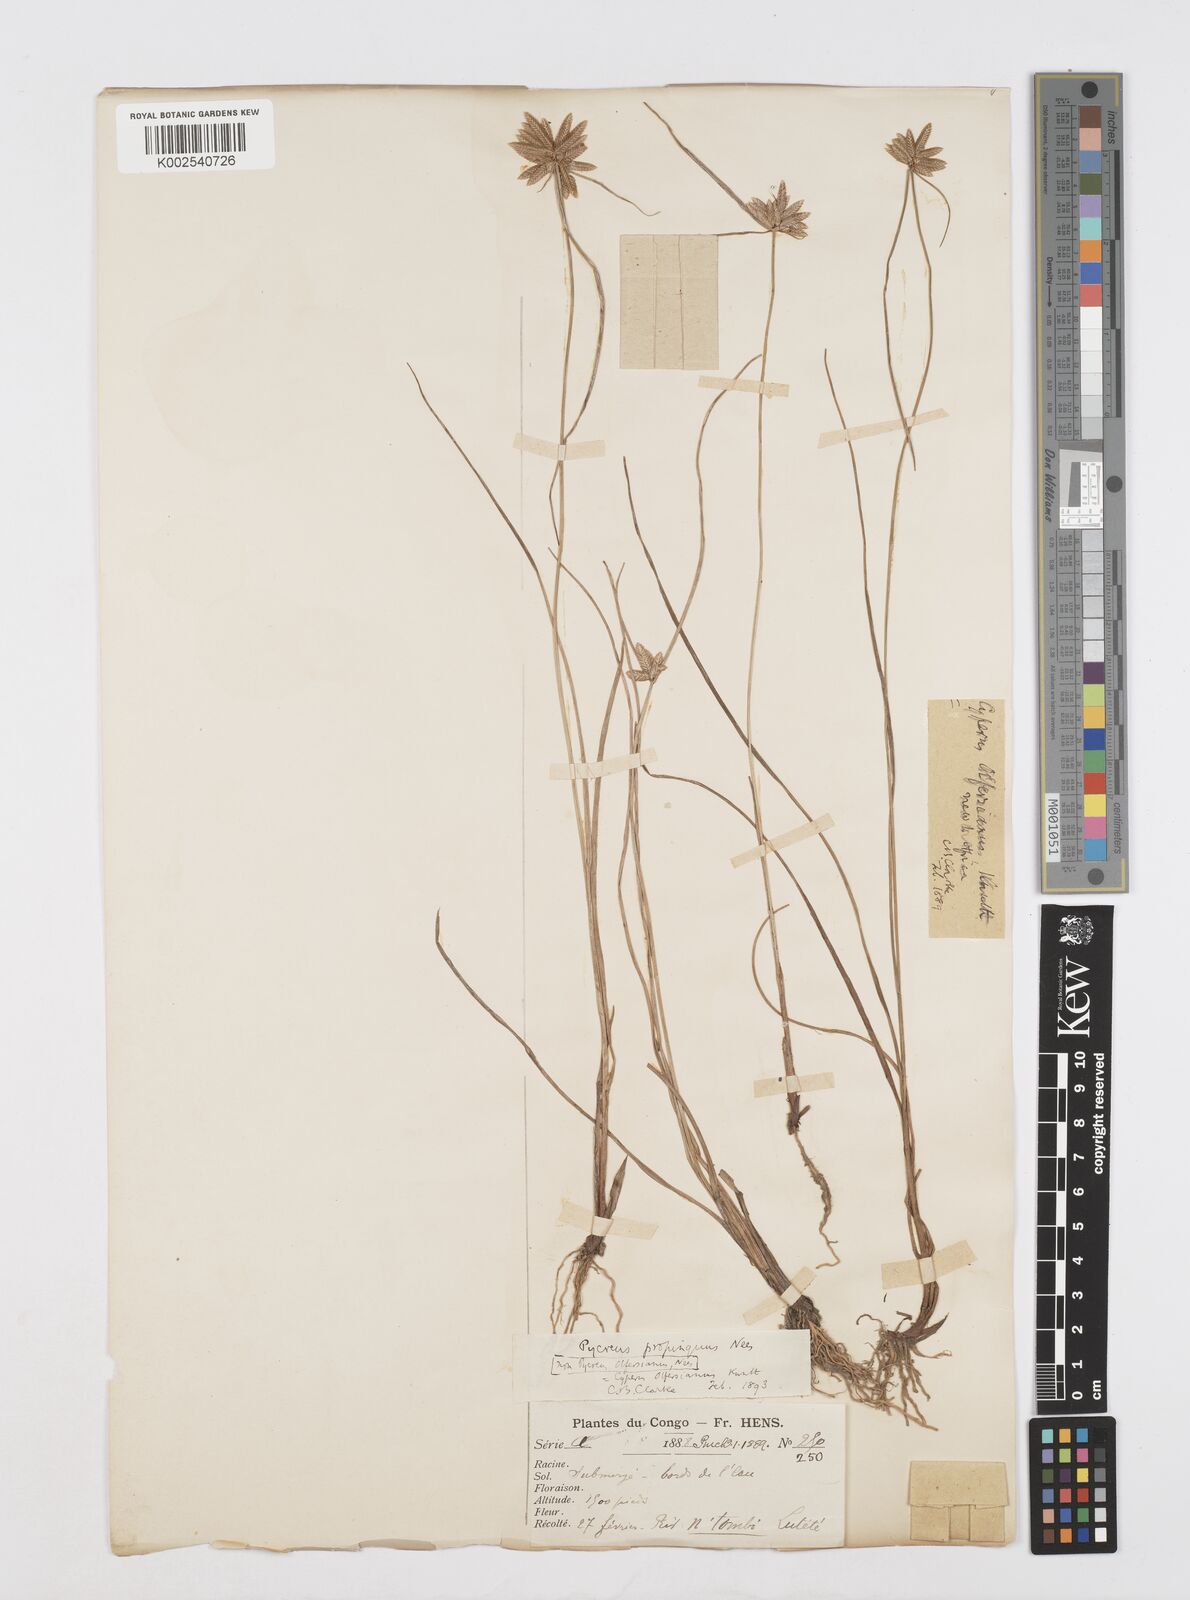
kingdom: Plantae
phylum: Tracheophyta
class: Liliopsida
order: Poales
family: Cyperaceae
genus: Cyperus
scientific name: Cyperus
